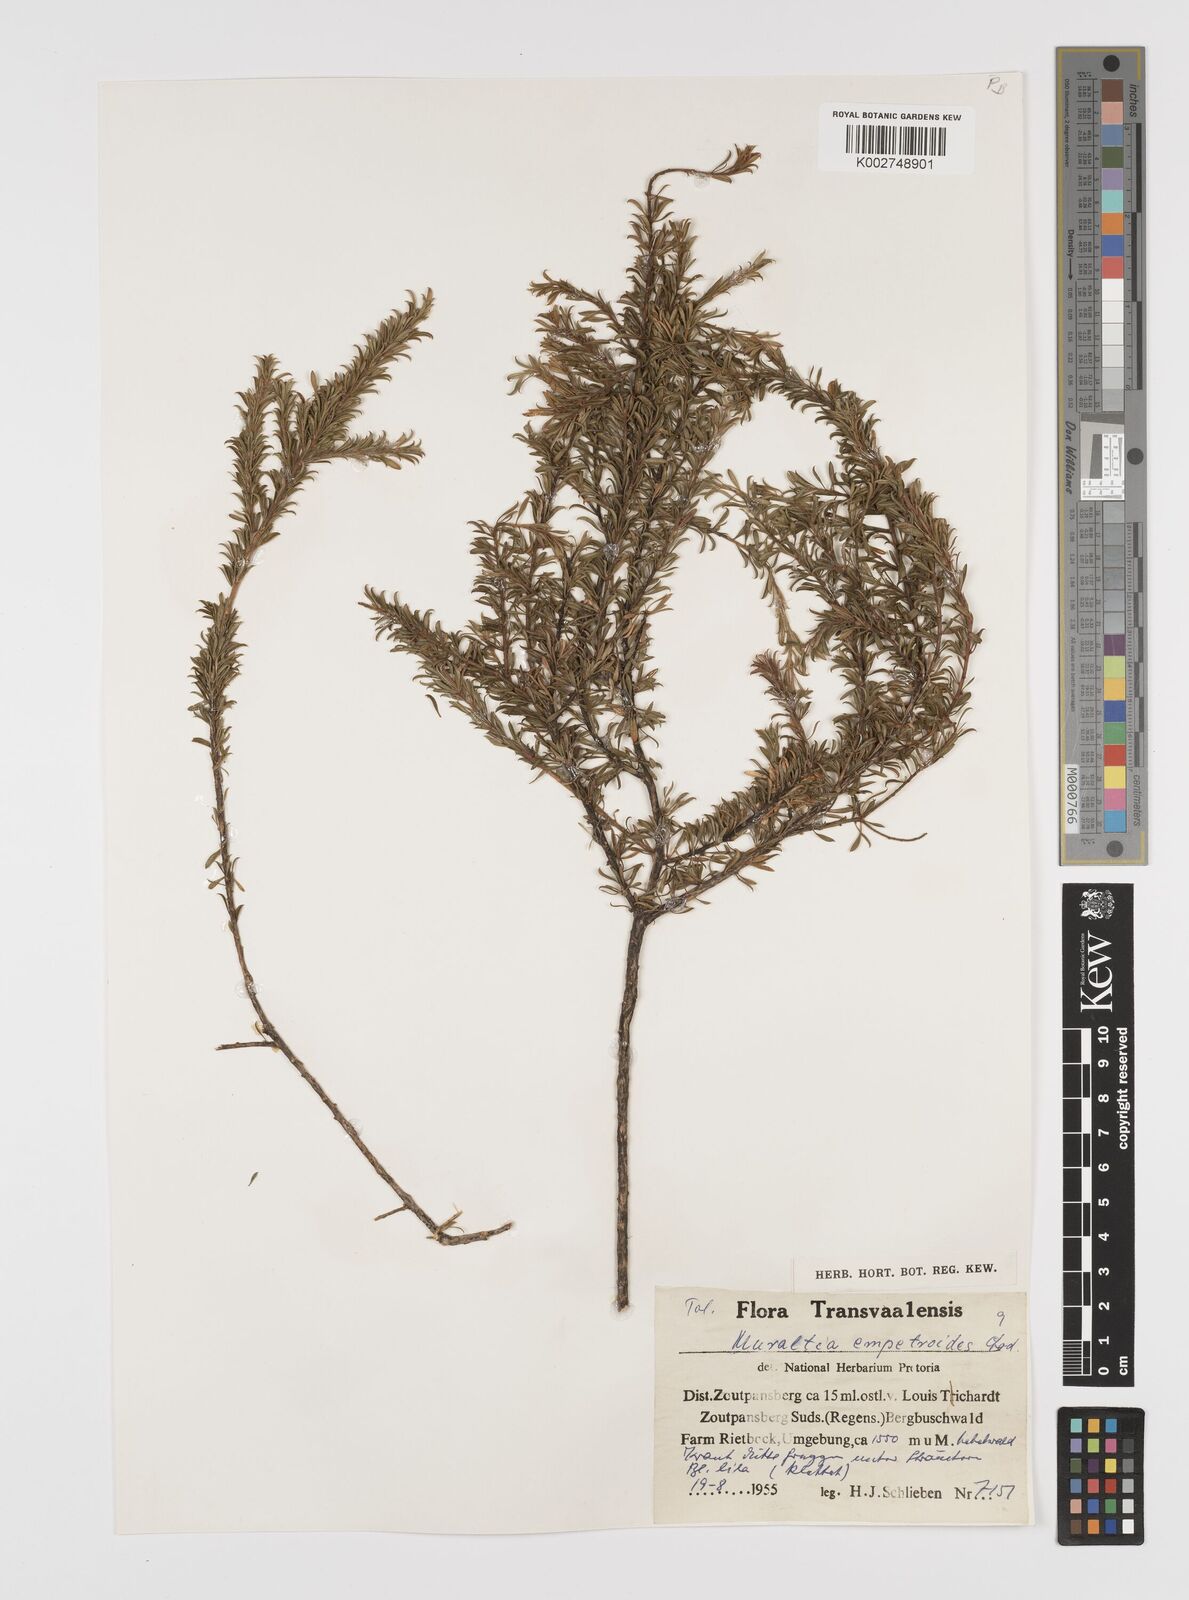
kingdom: Plantae
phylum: Tracheophyta
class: Magnoliopsida
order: Fabales
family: Polygalaceae
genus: Muraltia
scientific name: Muraltia empetroides
